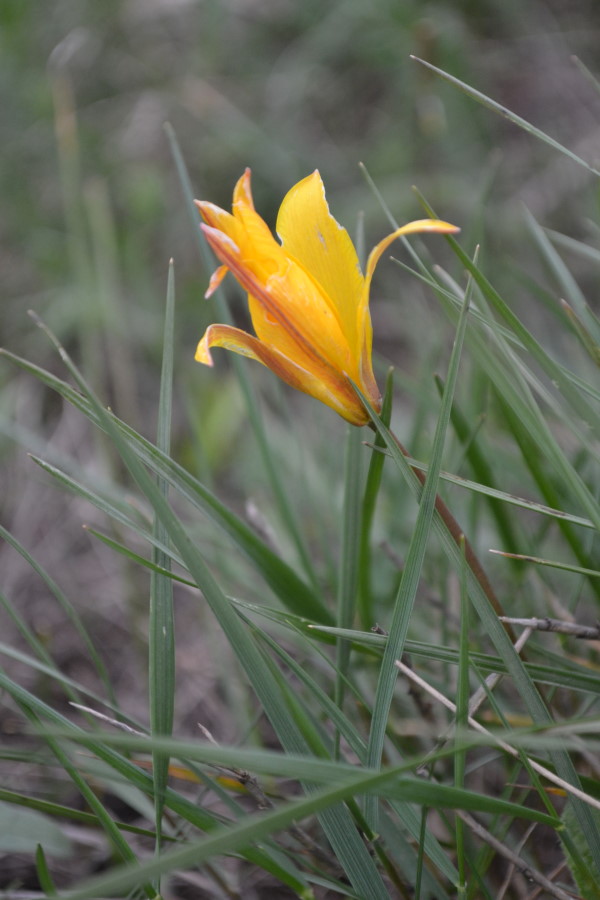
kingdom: Plantae
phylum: Tracheophyta
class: Liliopsida
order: Liliales
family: Liliaceae
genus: Tulipa
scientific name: Tulipa sylvestris
